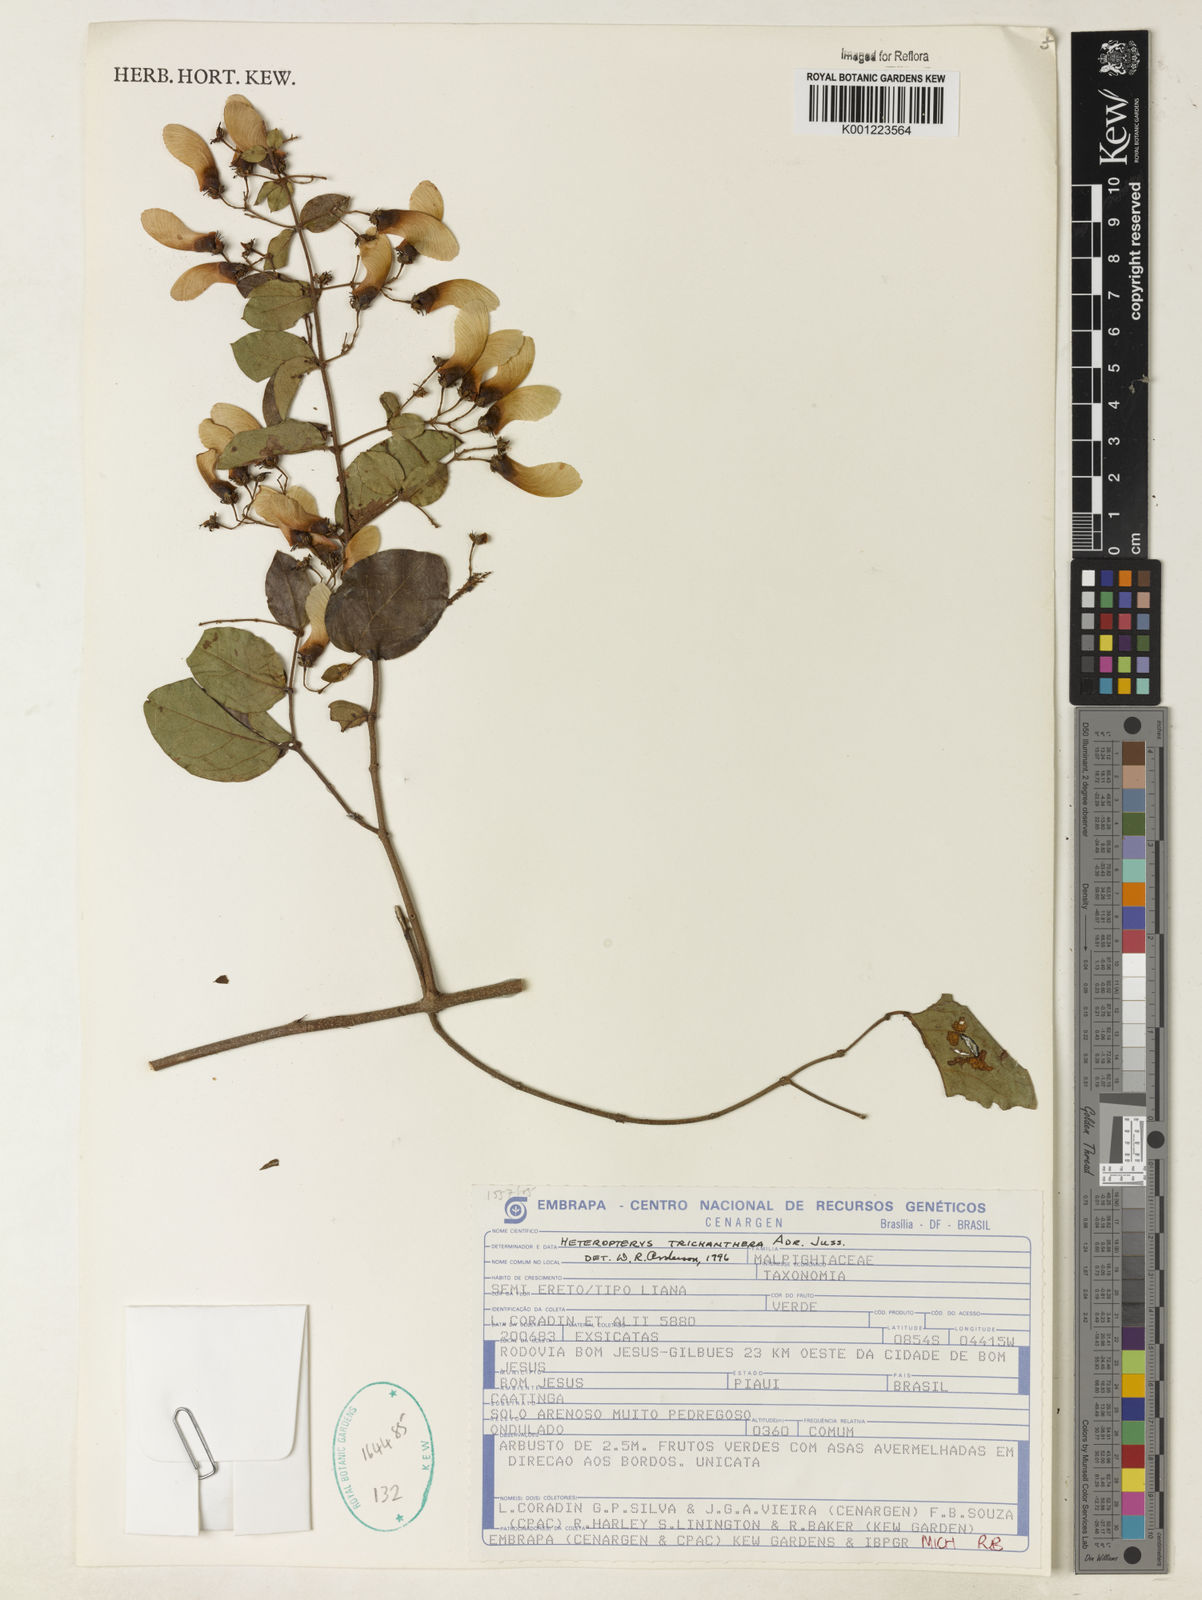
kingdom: Plantae
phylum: Tracheophyta
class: Magnoliopsida
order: Malpighiales
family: Malpighiaceae
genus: Heteropterys
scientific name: Heteropterys trichanthera
